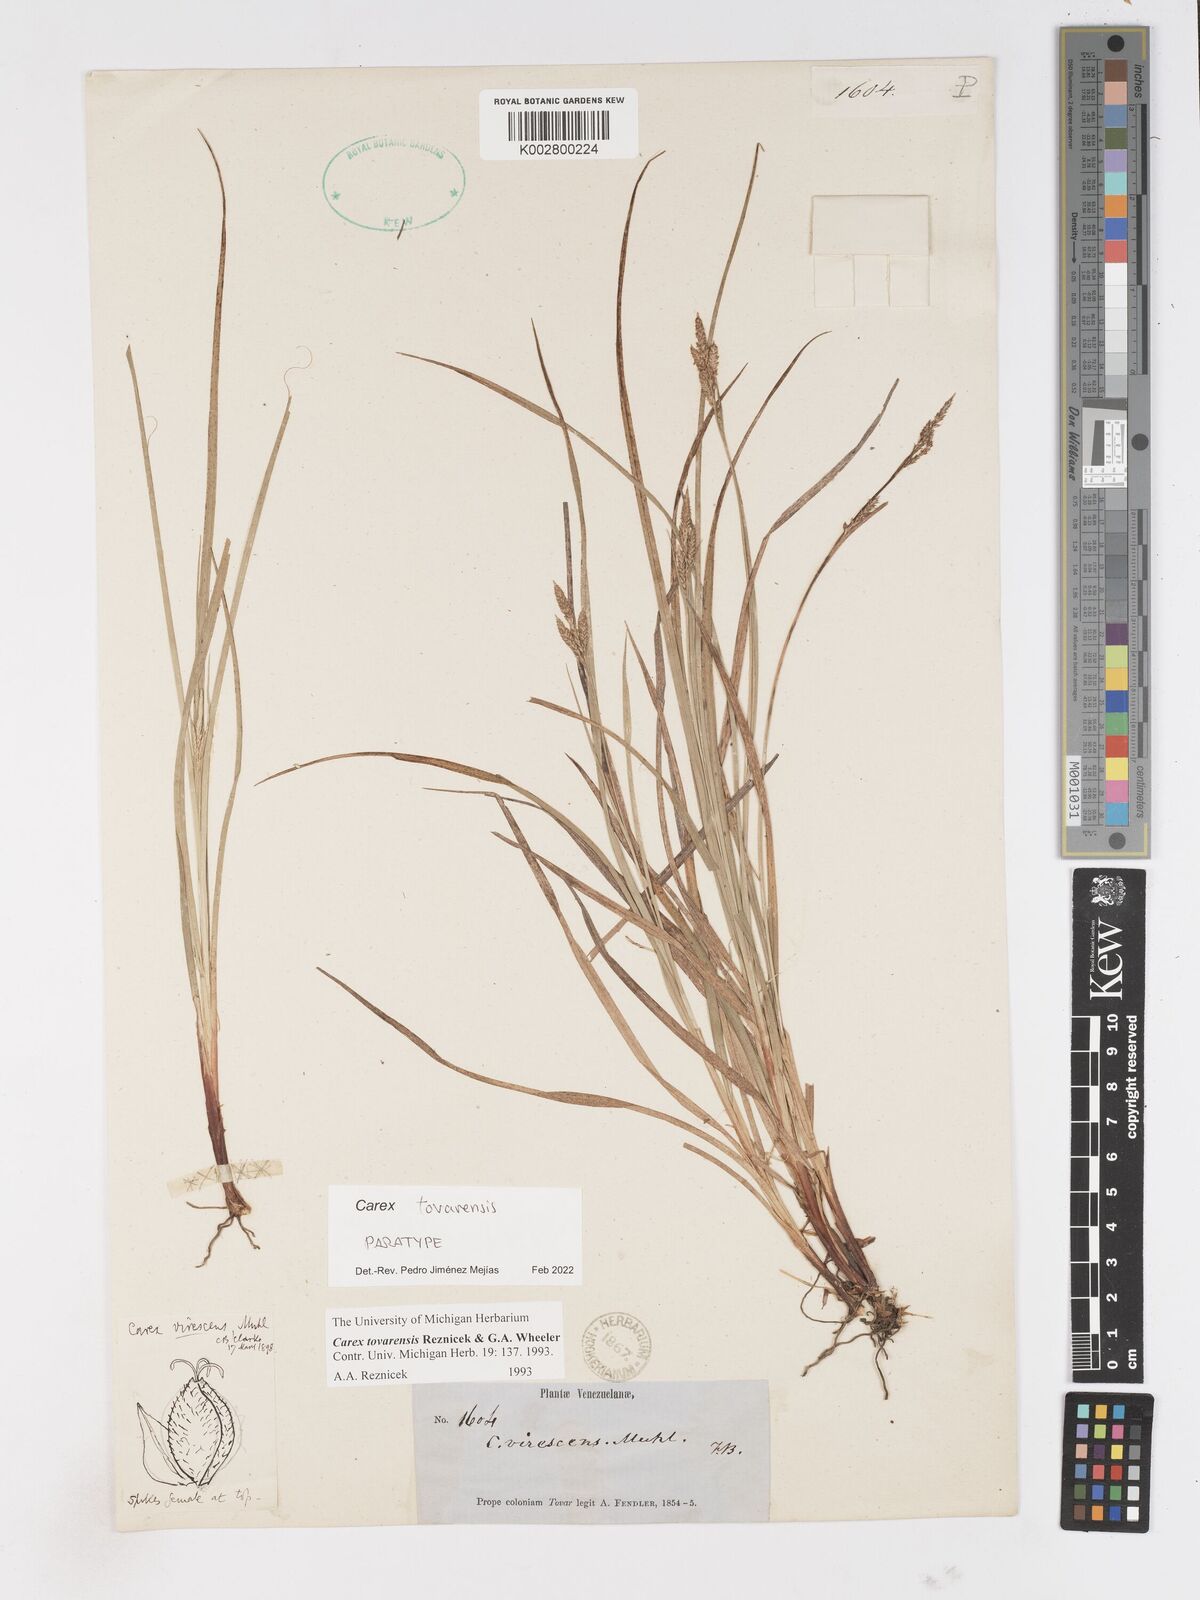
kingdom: Plantae
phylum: Tracheophyta
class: Liliopsida
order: Poales
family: Cyperaceae
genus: Carex
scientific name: Carex tovarensis
